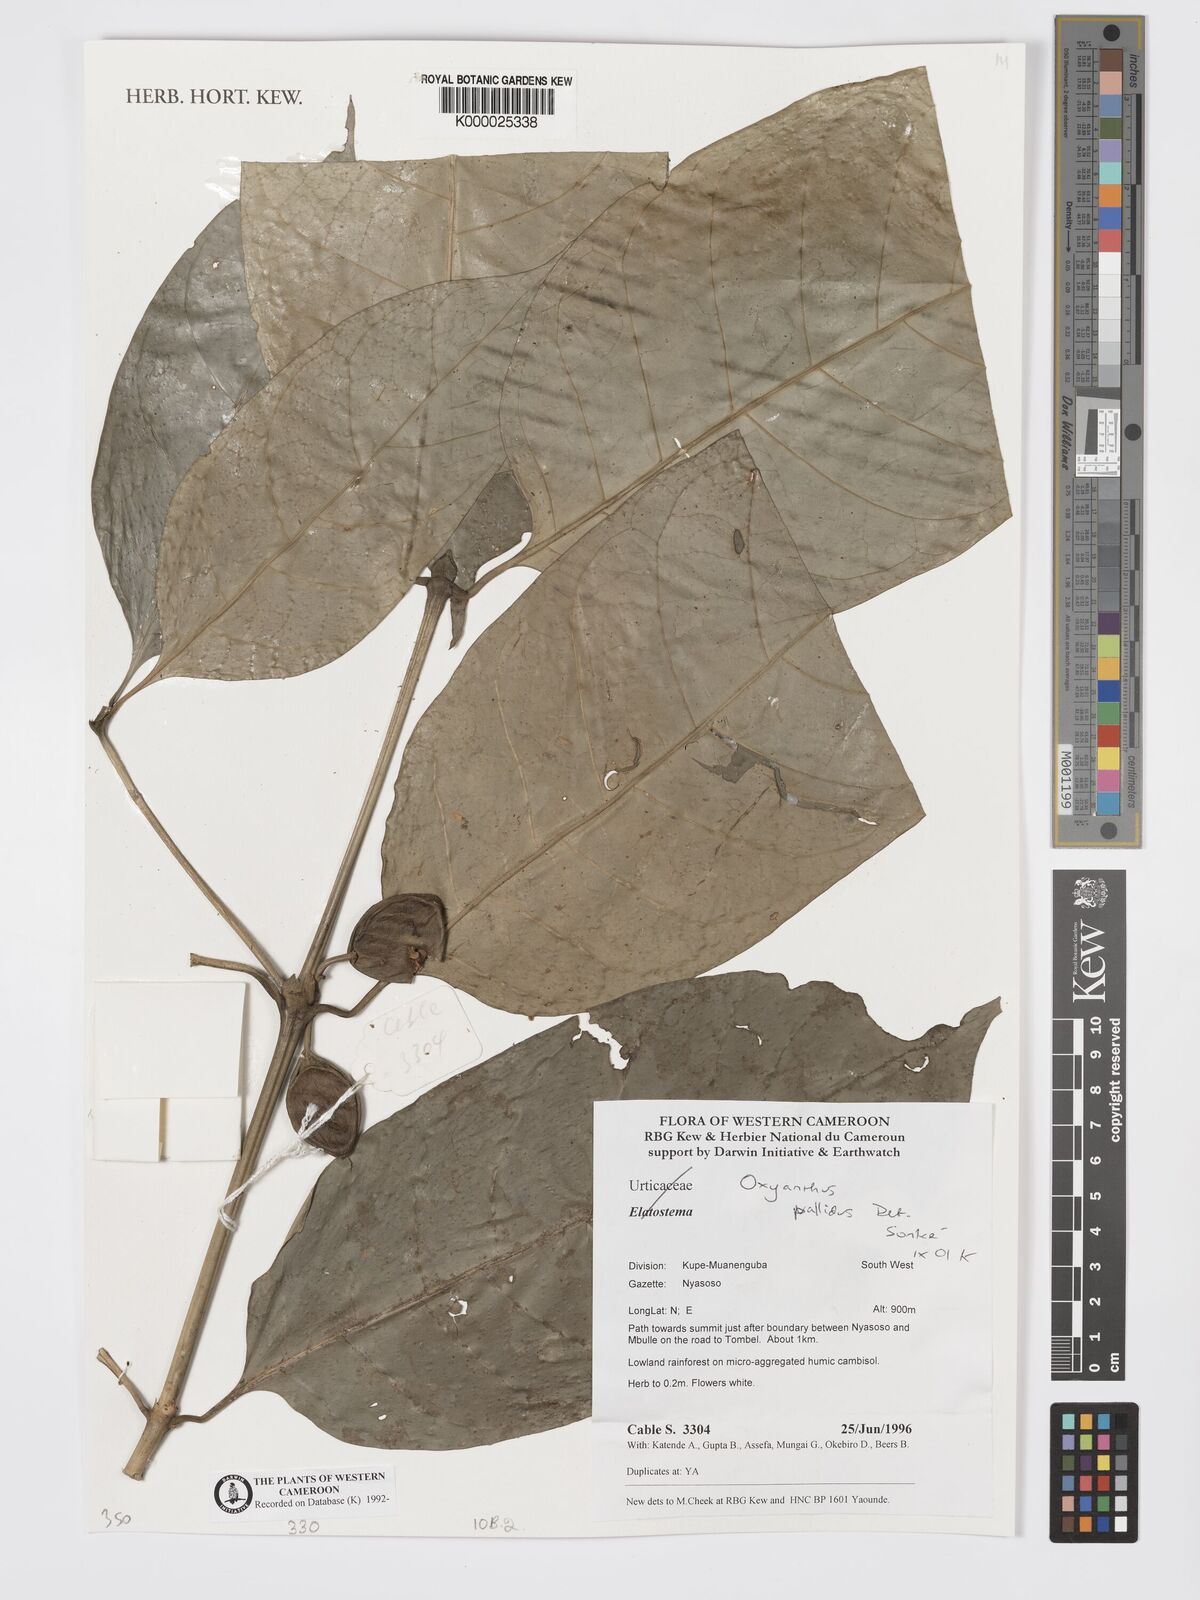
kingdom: Plantae
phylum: Tracheophyta
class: Magnoliopsida
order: Gentianales
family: Rubiaceae
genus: Oxyanthus
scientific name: Oxyanthus pallidus
